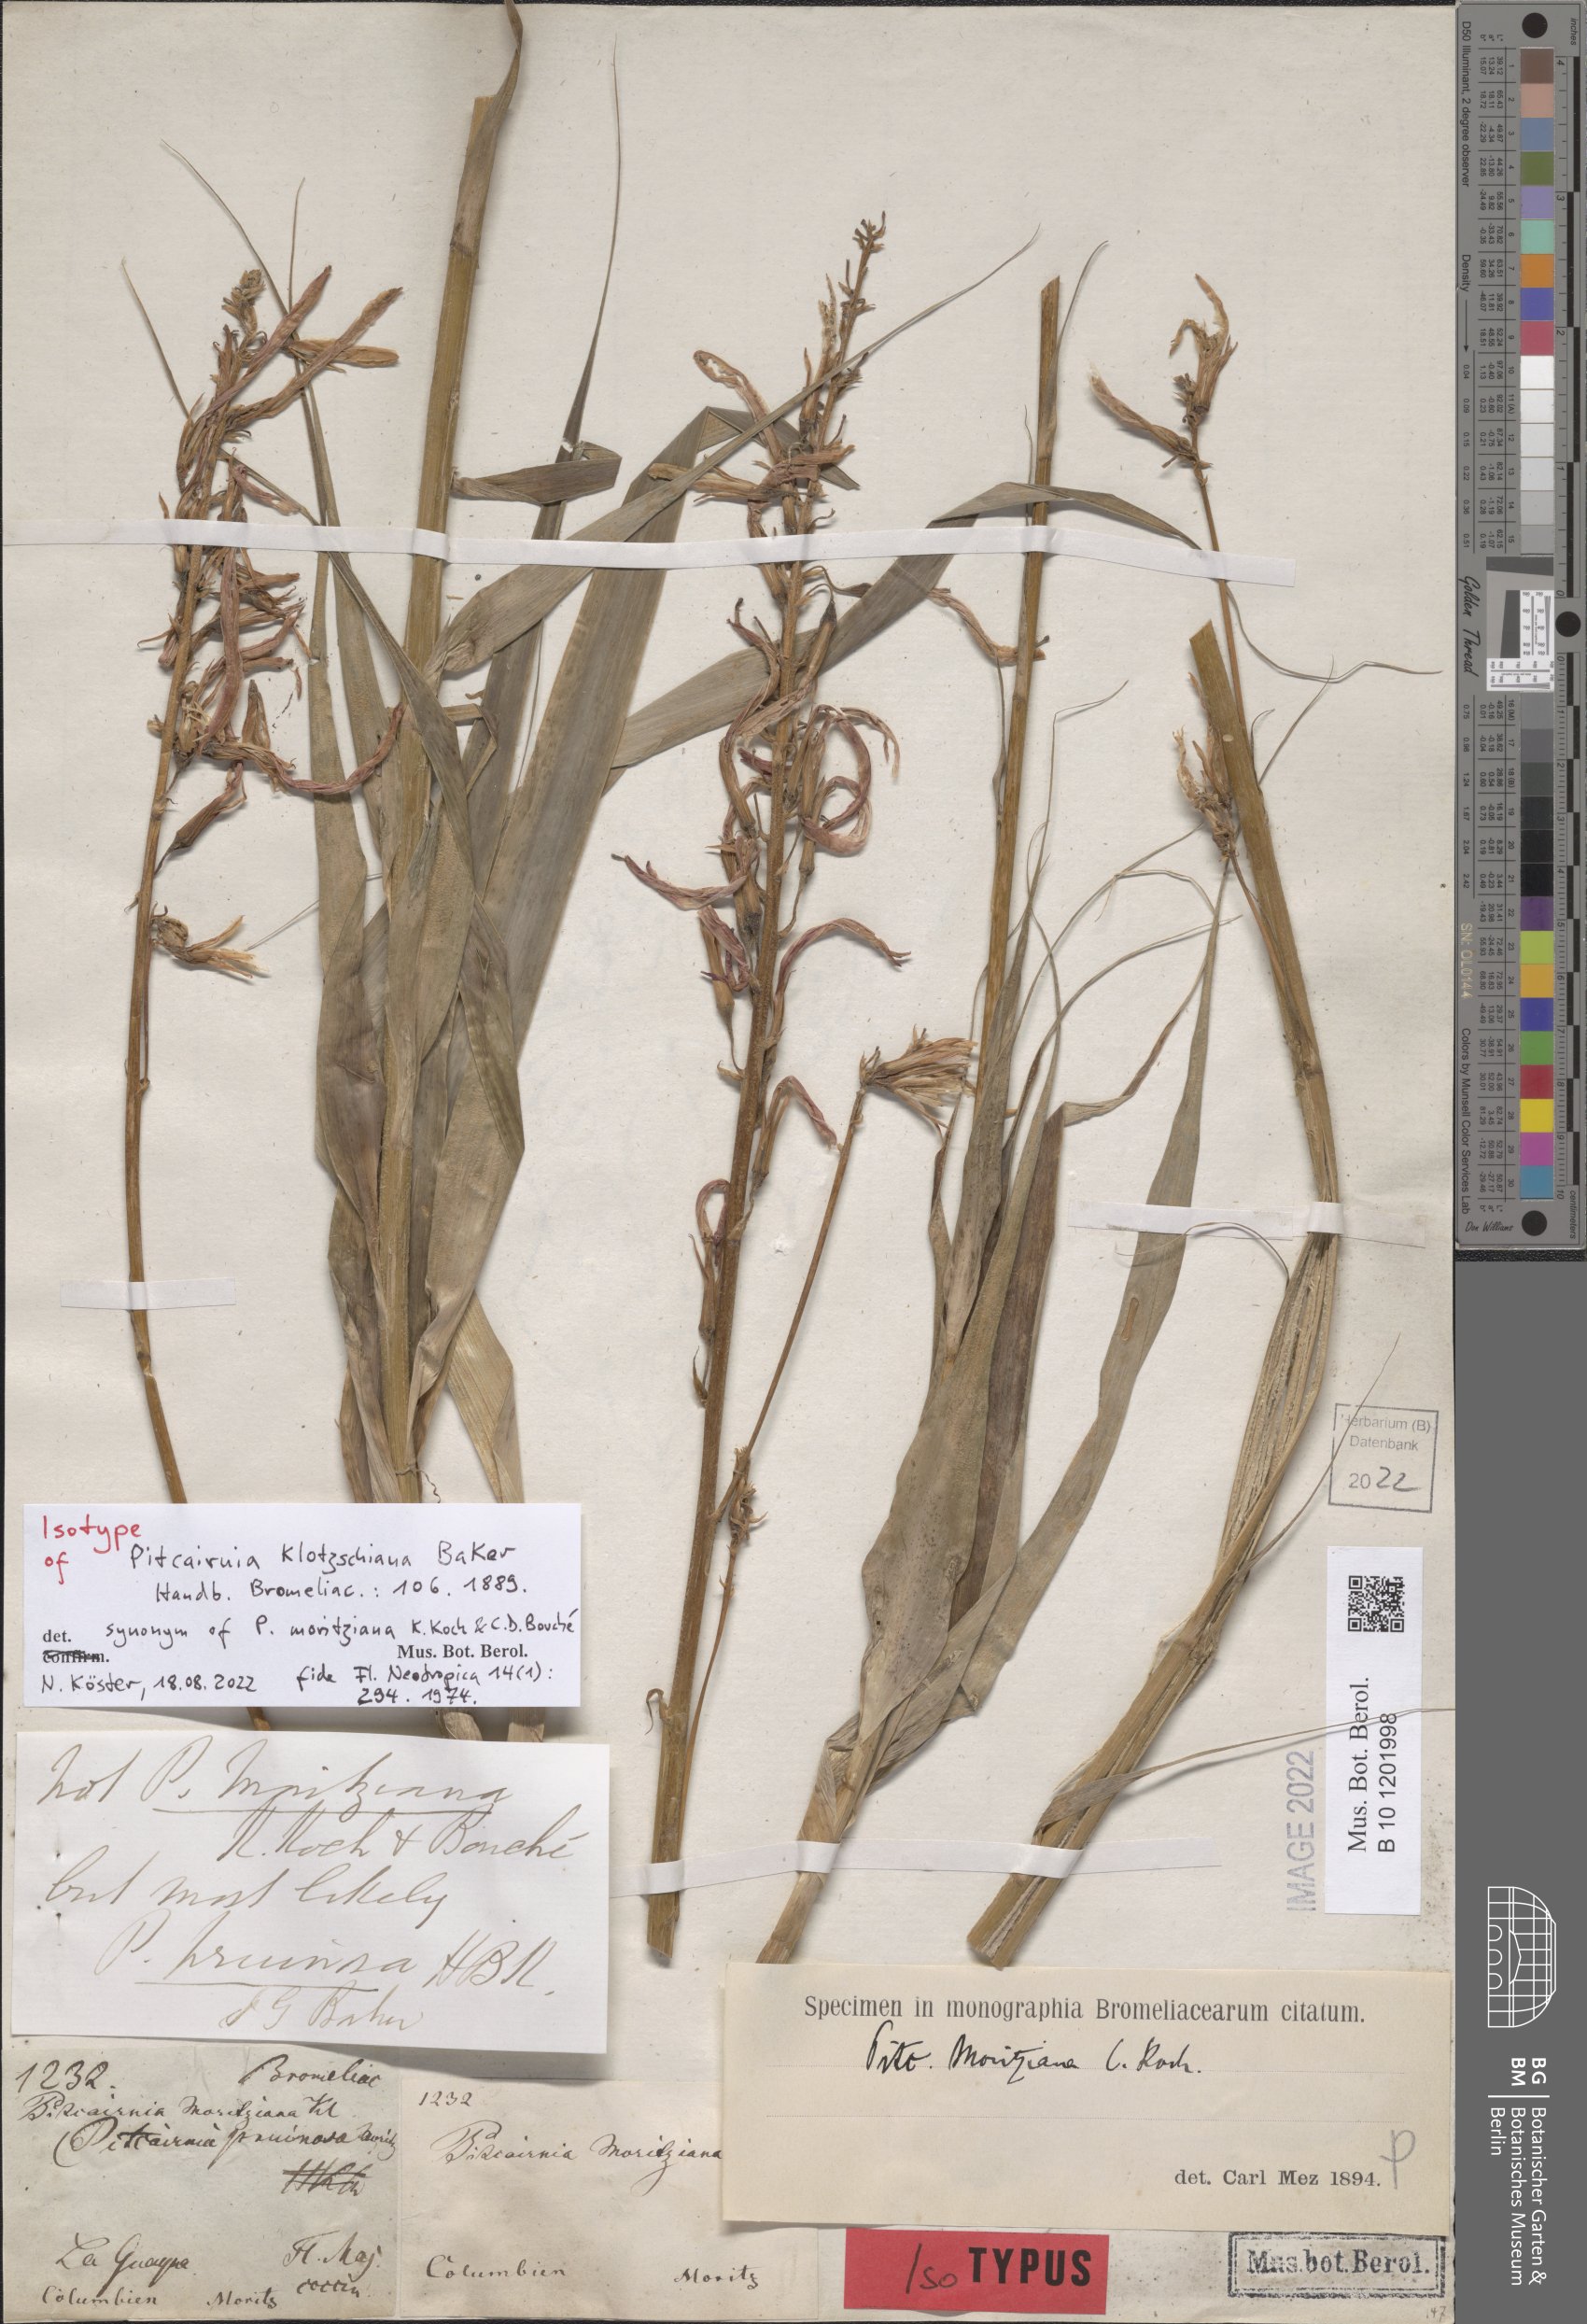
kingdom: Plantae
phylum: Tracheophyta
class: Liliopsida
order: Poales
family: Bromeliaceae
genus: Pitcairnia
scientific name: Pitcairnia moritziana
